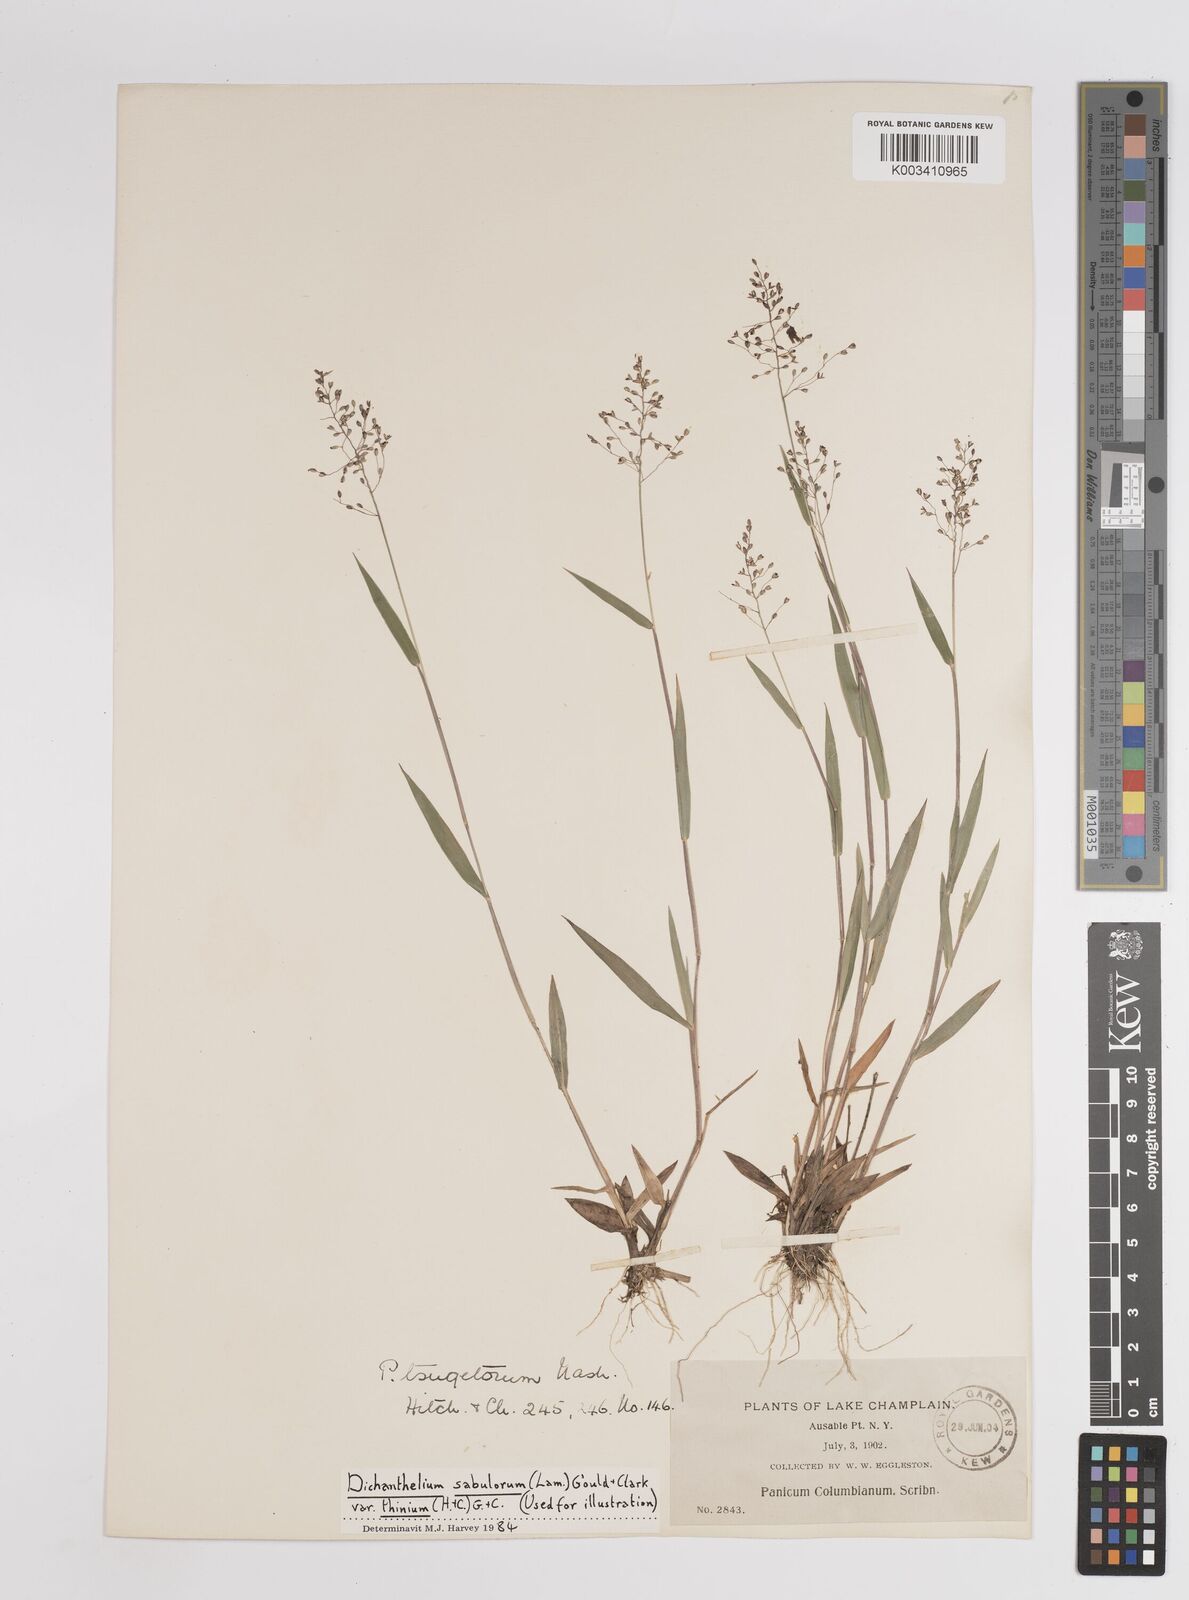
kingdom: Plantae
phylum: Tracheophyta
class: Liliopsida
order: Poales
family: Poaceae
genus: Dichanthelium
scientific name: Dichanthelium columbianum
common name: Hemlock panic grass
